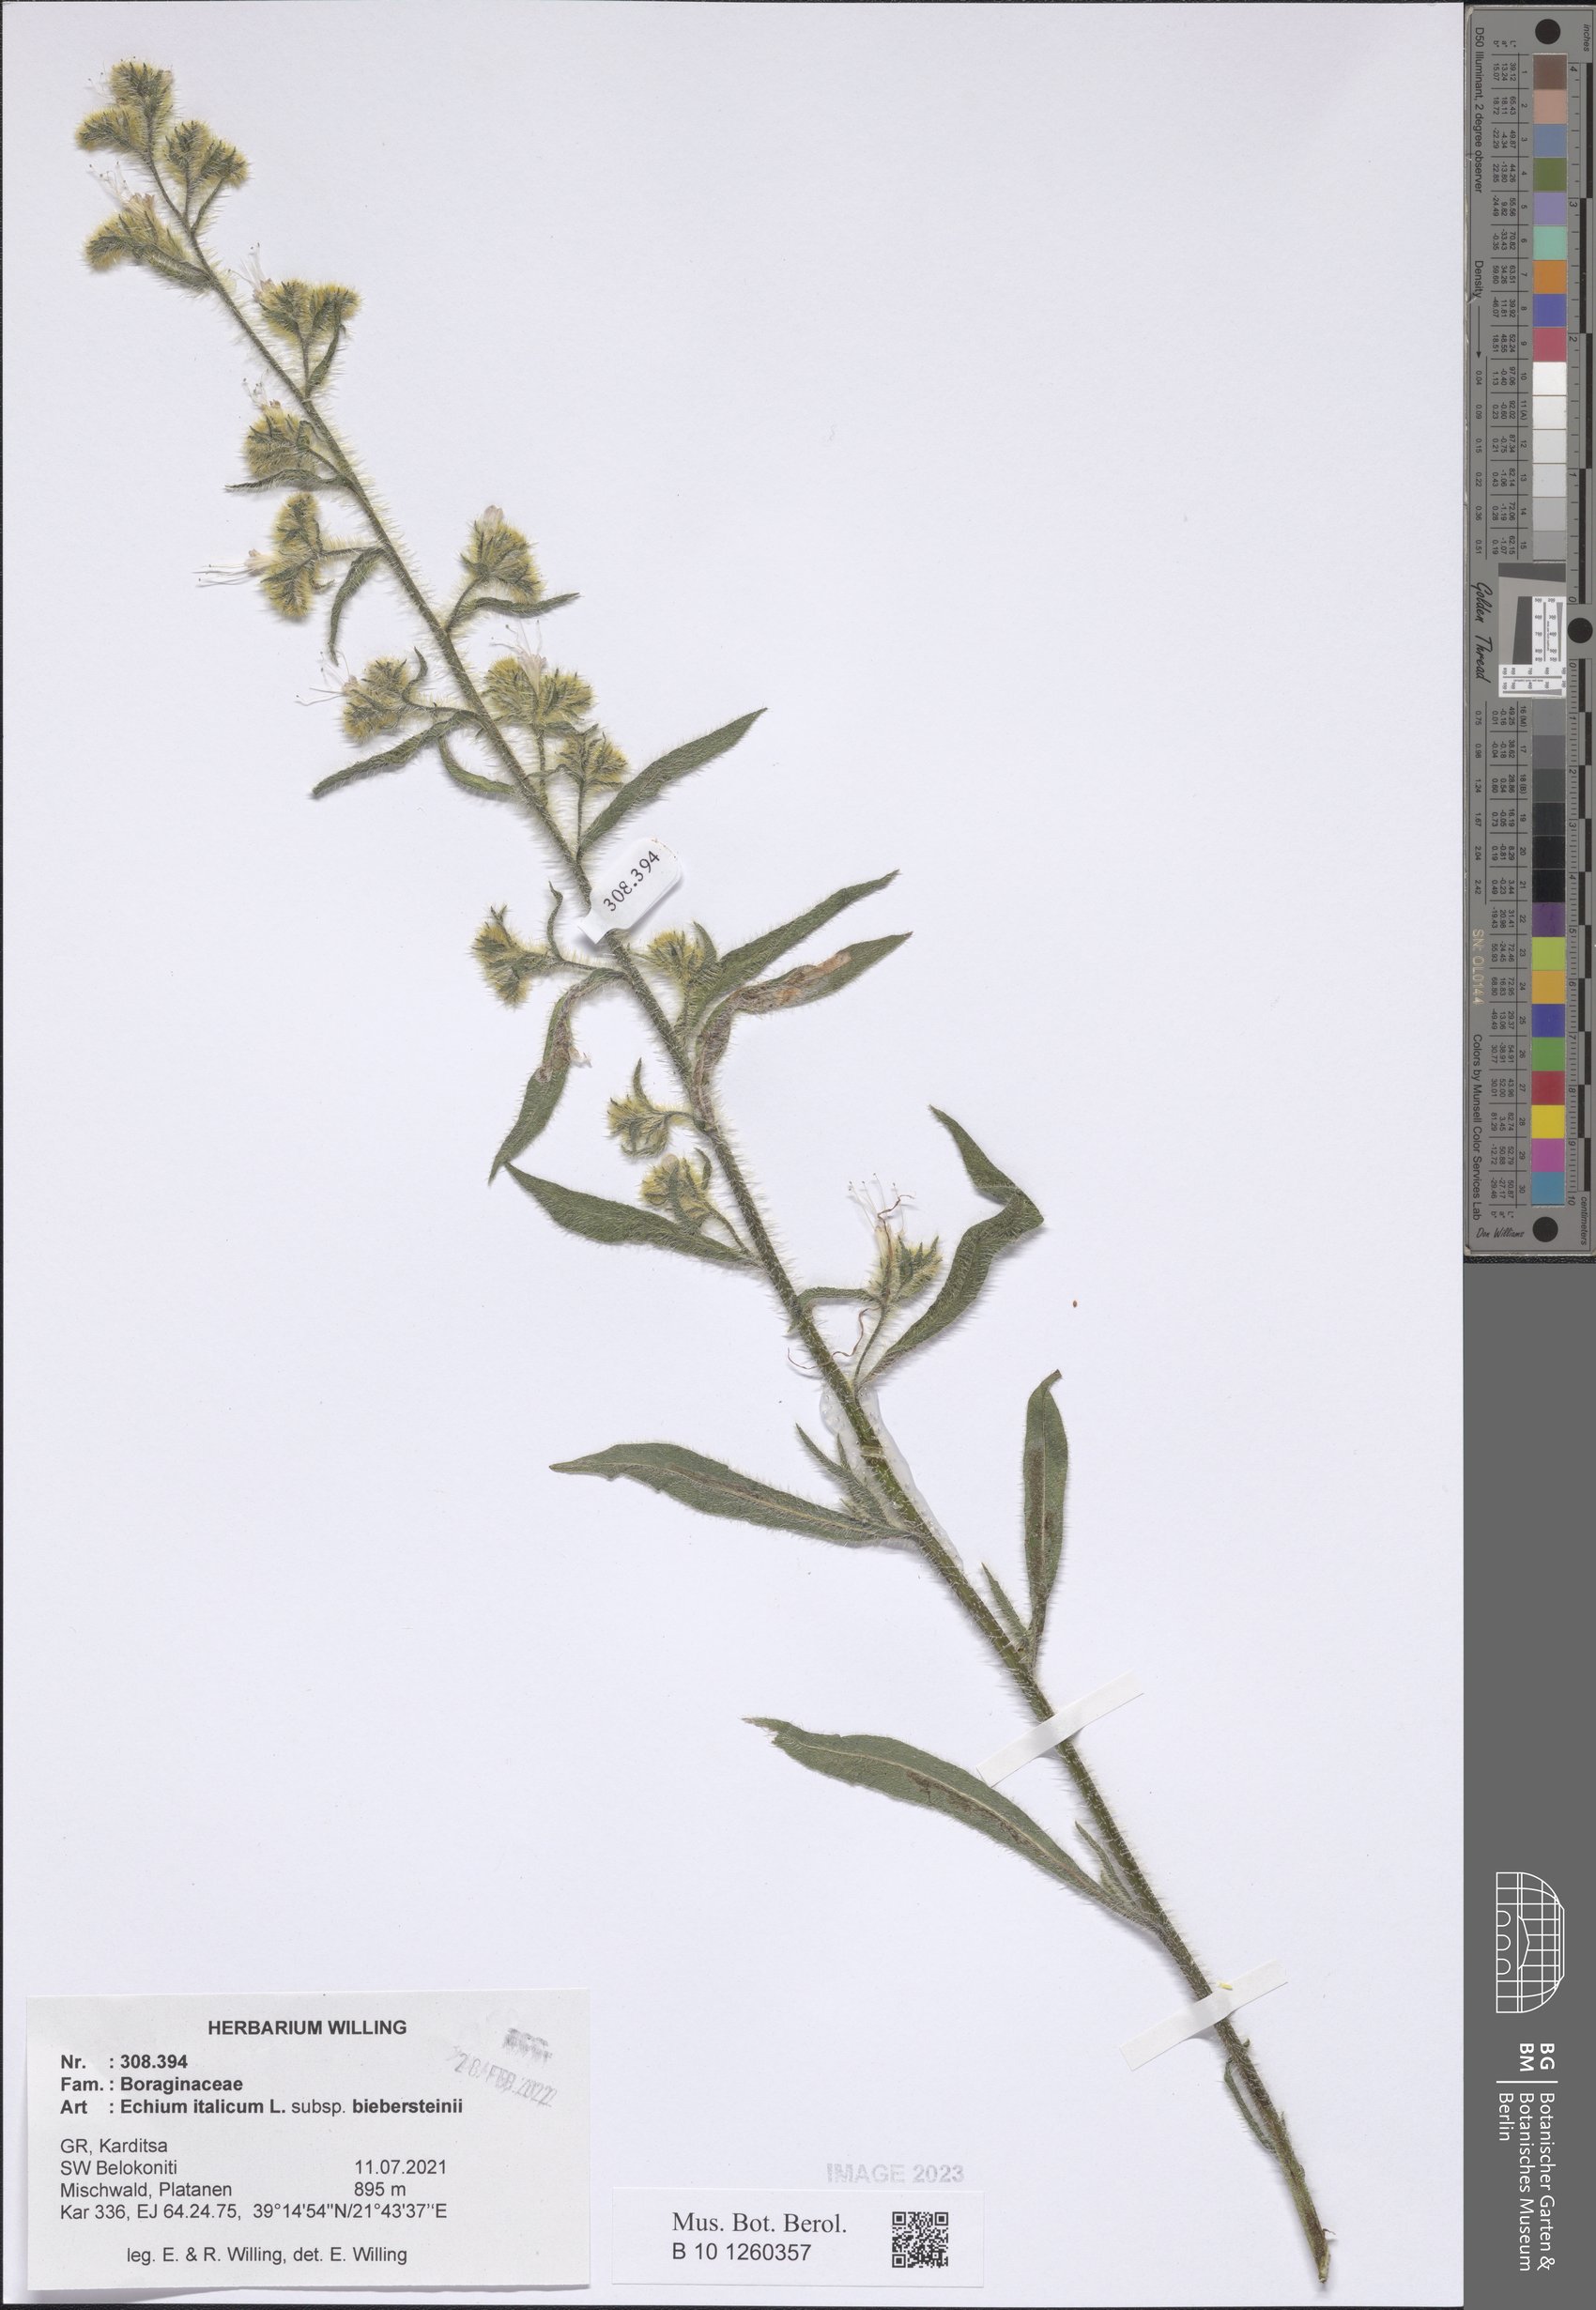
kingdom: Plantae
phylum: Tracheophyta
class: Magnoliopsida
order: Boraginales
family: Boraginaceae
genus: Echium
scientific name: Echium italicum
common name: Italian viper's bugloss
